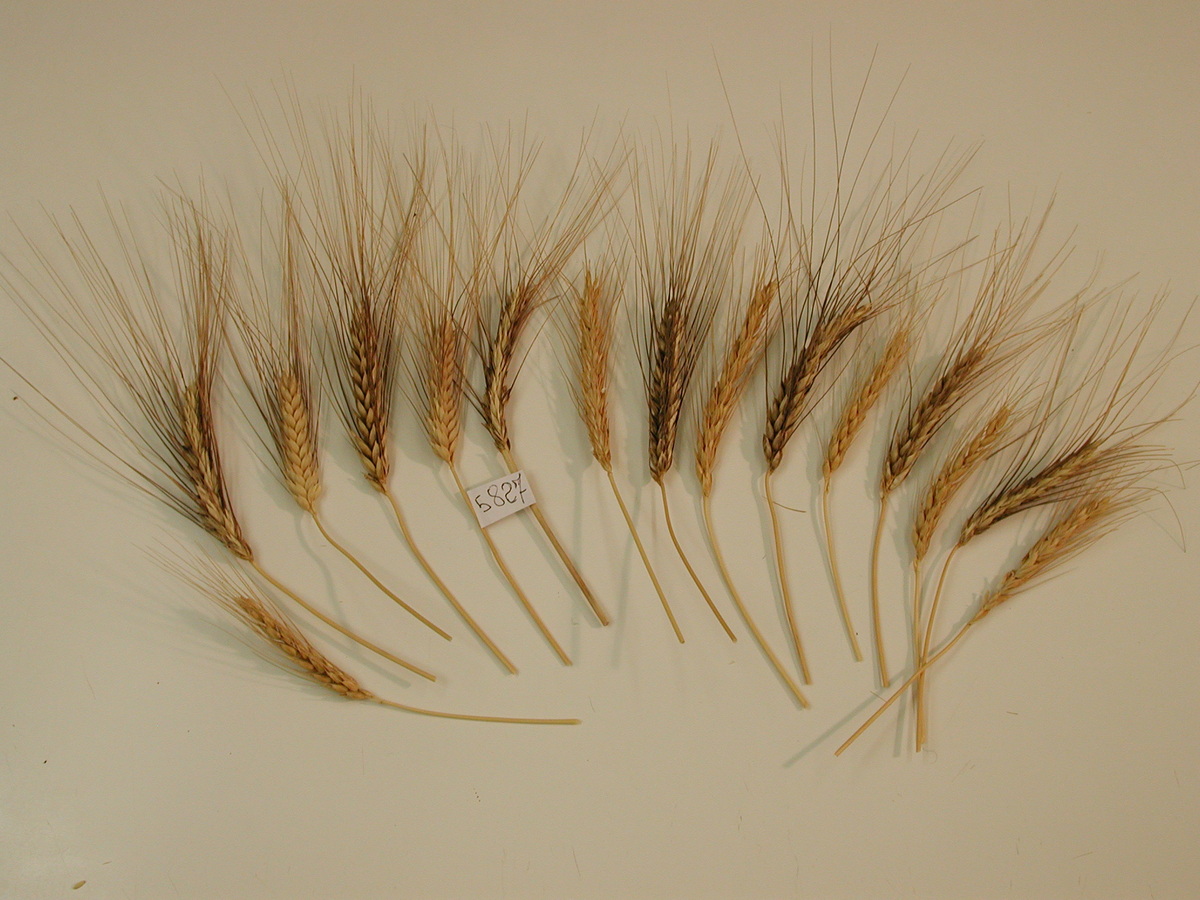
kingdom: Plantae
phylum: Tracheophyta
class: Liliopsida
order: Poales
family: Poaceae
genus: Triticum
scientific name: Triticum aestivum
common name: Wheat
